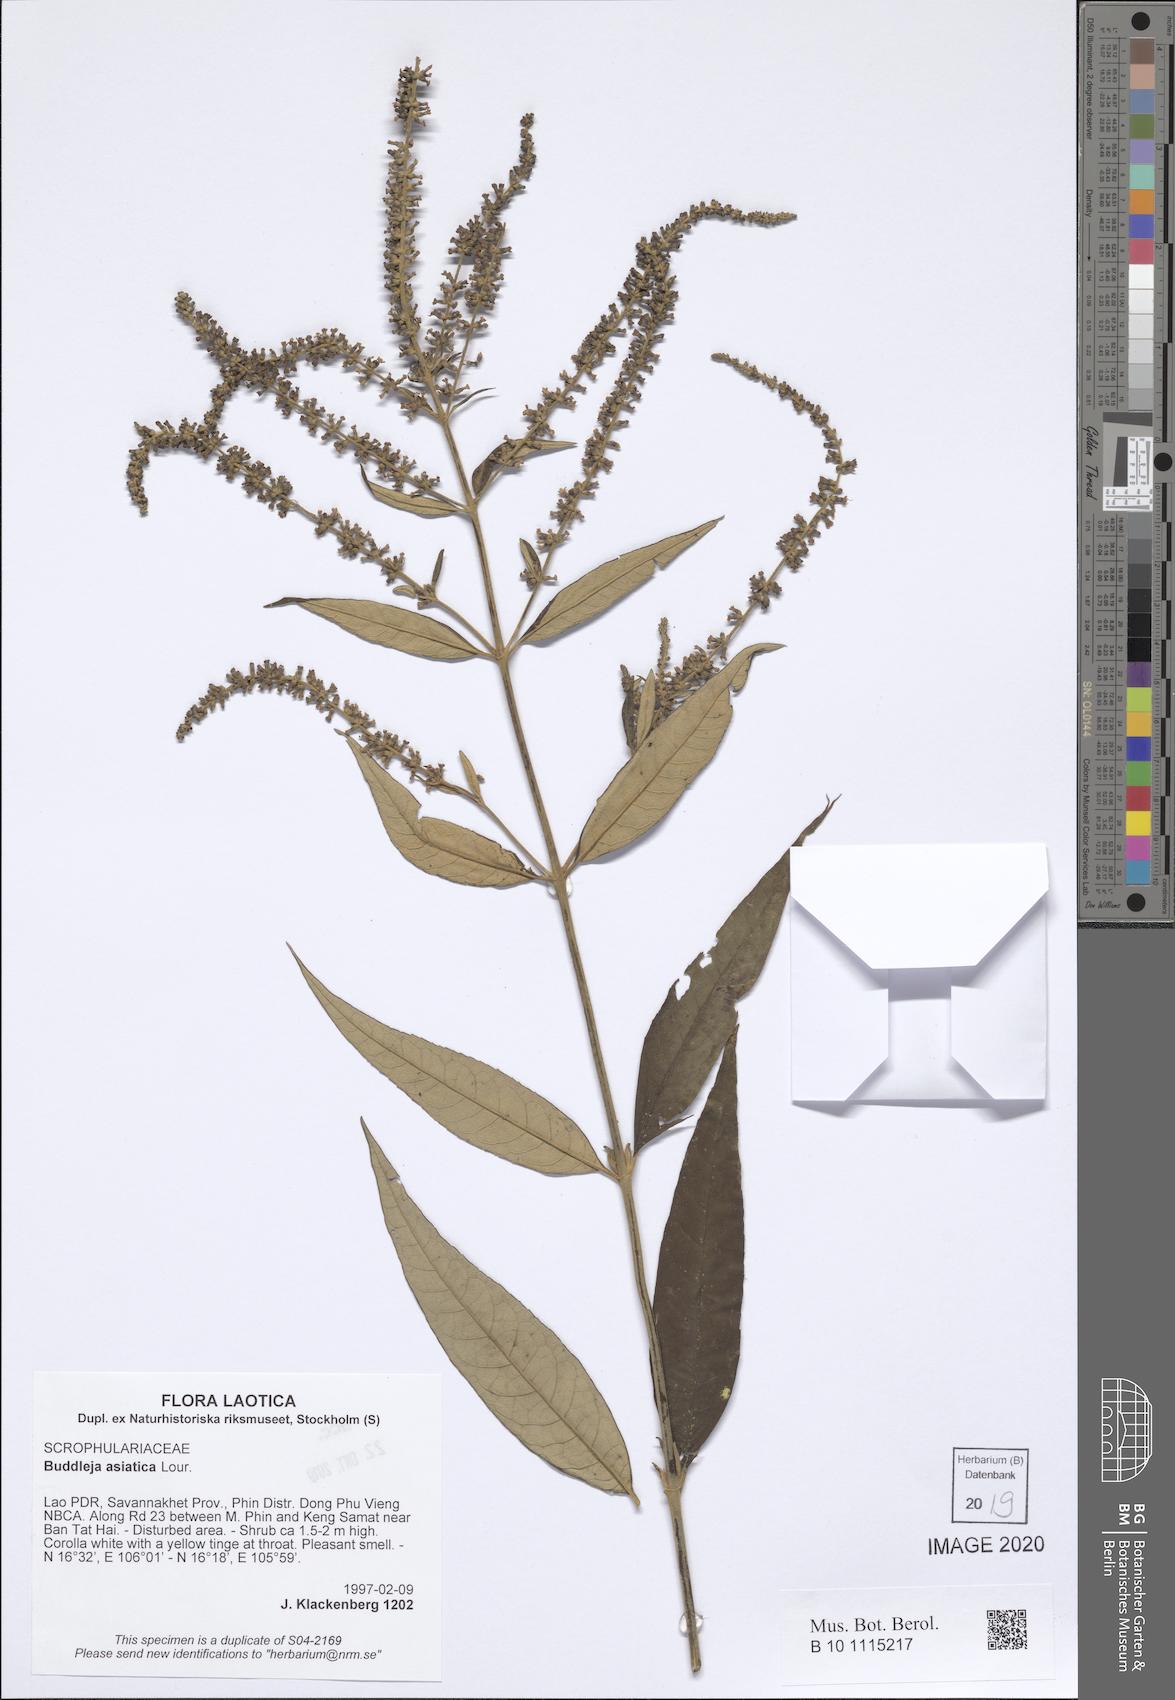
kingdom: Plantae
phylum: Tracheophyta
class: Magnoliopsida
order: Lamiales
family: Scrophulariaceae
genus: Buddleja
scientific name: Buddleja asiatica
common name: Dog tail
